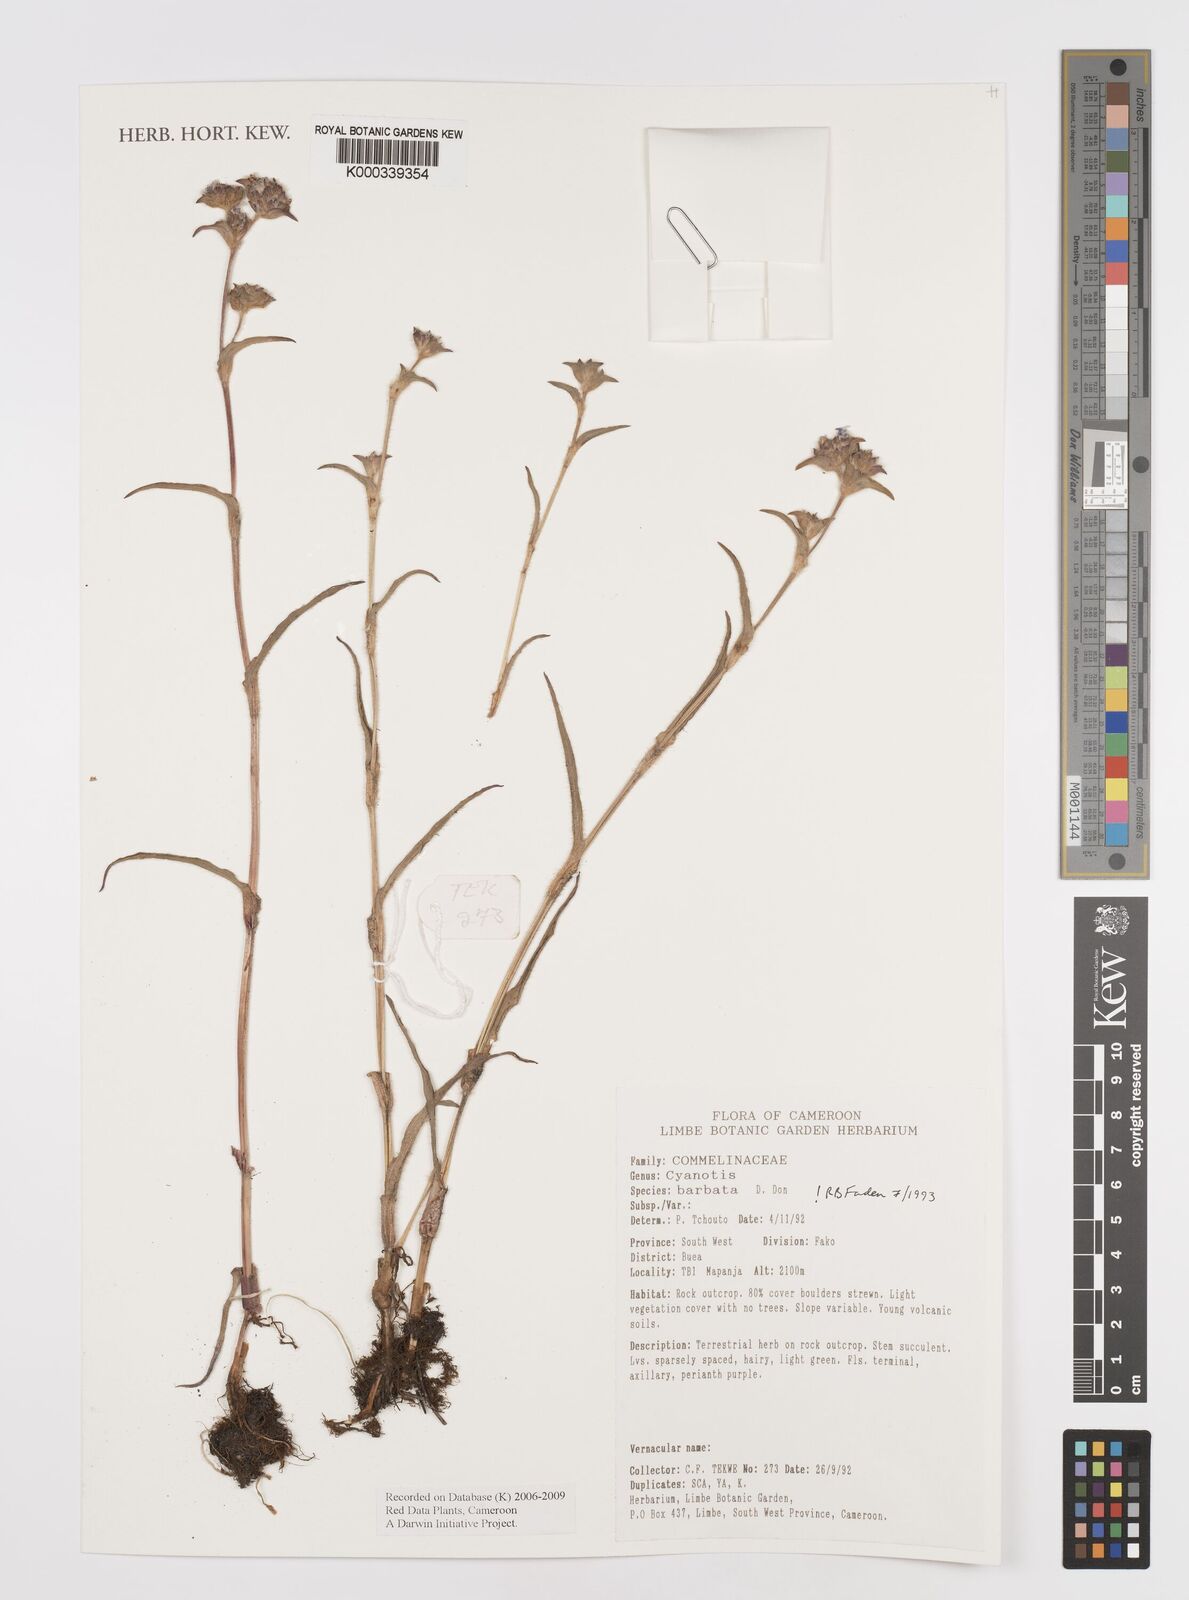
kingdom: Plantae
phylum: Tracheophyta
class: Liliopsida
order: Commelinales
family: Commelinaceae
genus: Cyanotis
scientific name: Cyanotis vaga
